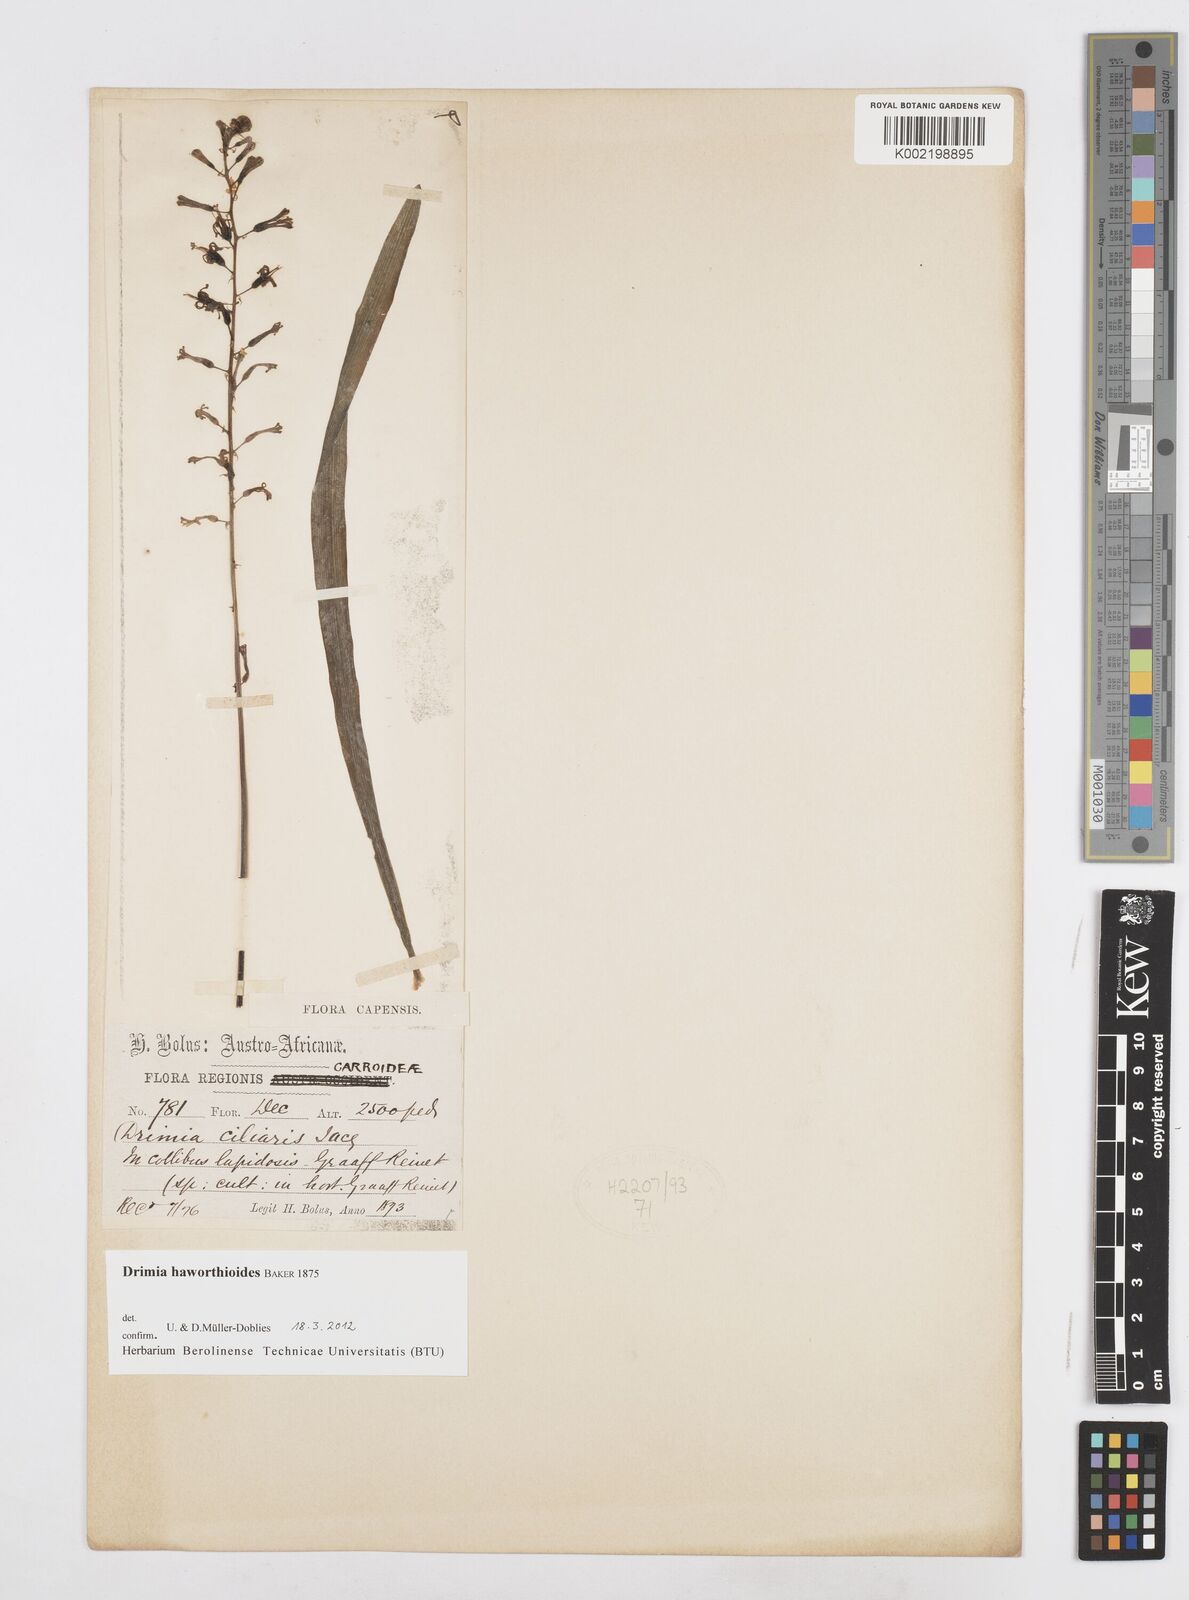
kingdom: Plantae
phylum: Tracheophyta
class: Liliopsida
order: Asparagales
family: Asparagaceae
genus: Drimia
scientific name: Drimia haworthioides
